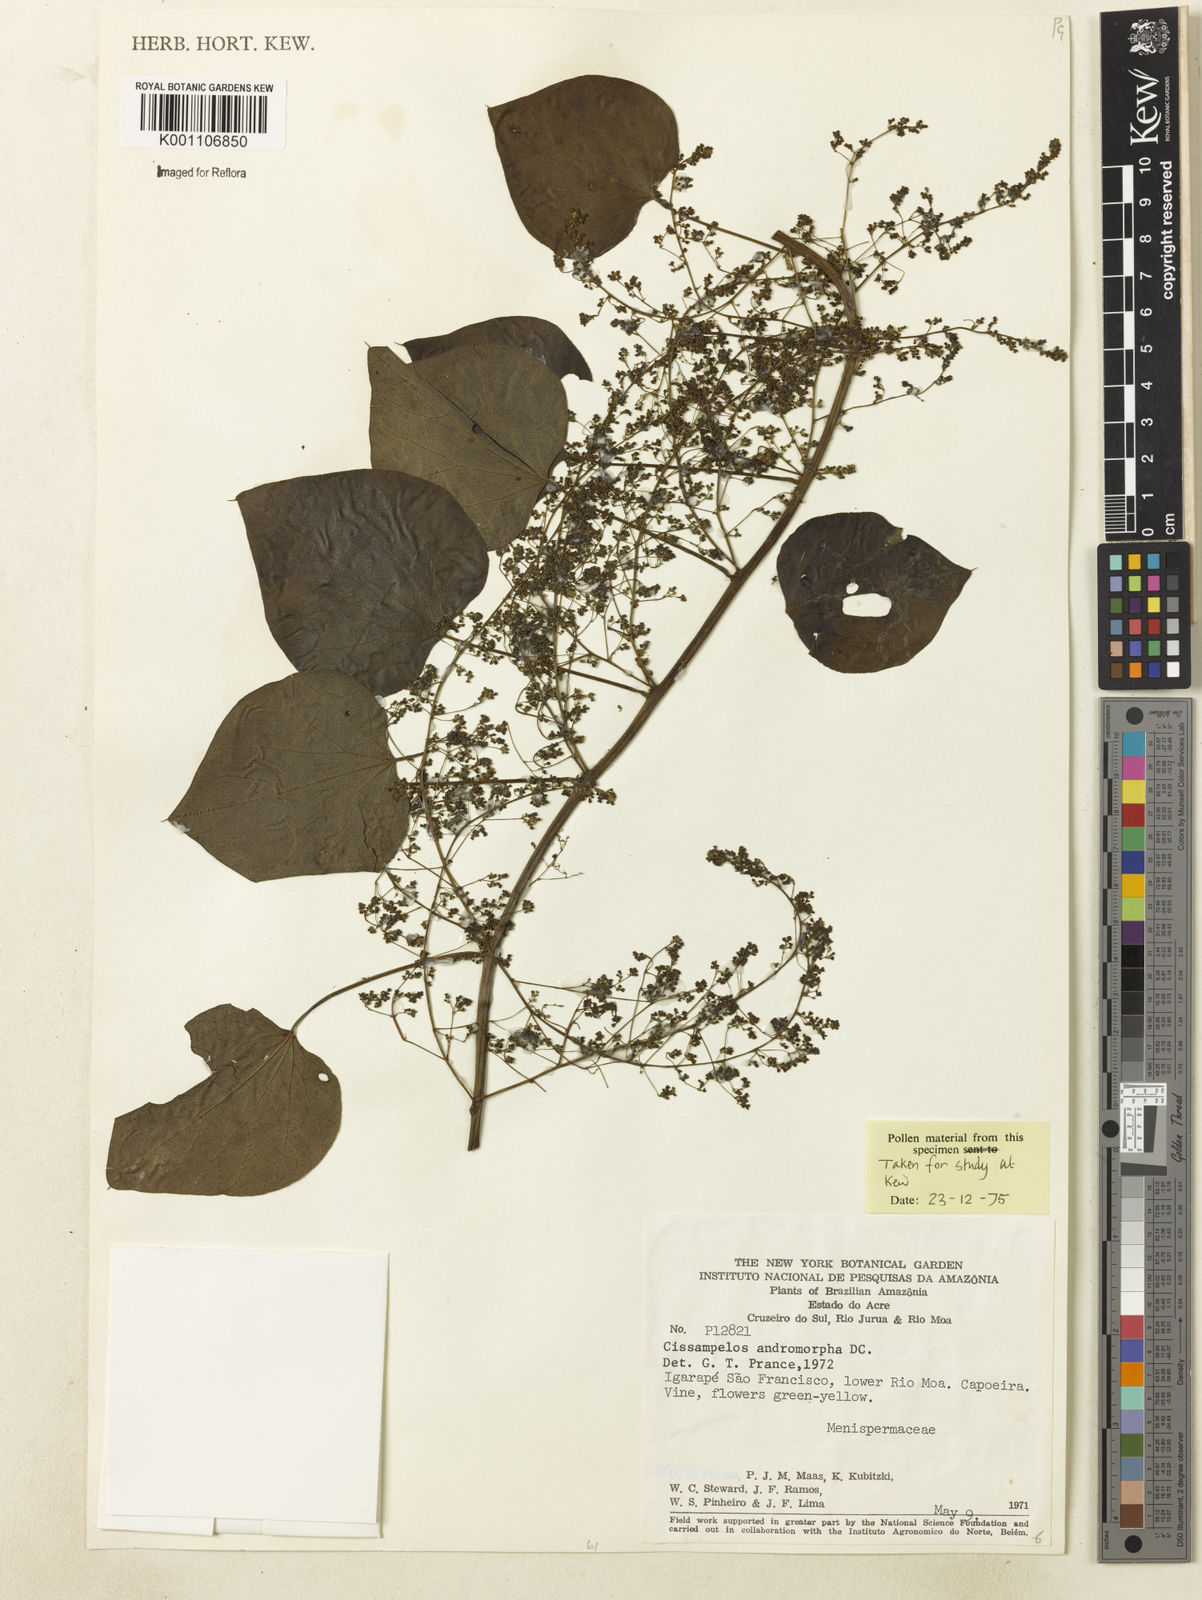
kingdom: Plantae
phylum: Tracheophyta
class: Magnoliopsida
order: Ranunculales
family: Menispermaceae
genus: Cissampelos
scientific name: Cissampelos andromorpha
